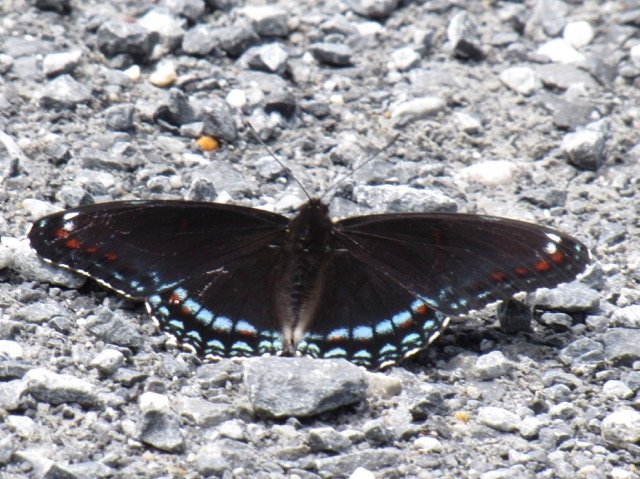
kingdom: Animalia
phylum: Arthropoda
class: Insecta
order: Lepidoptera
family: Nymphalidae
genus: Limenitis
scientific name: Limenitis
